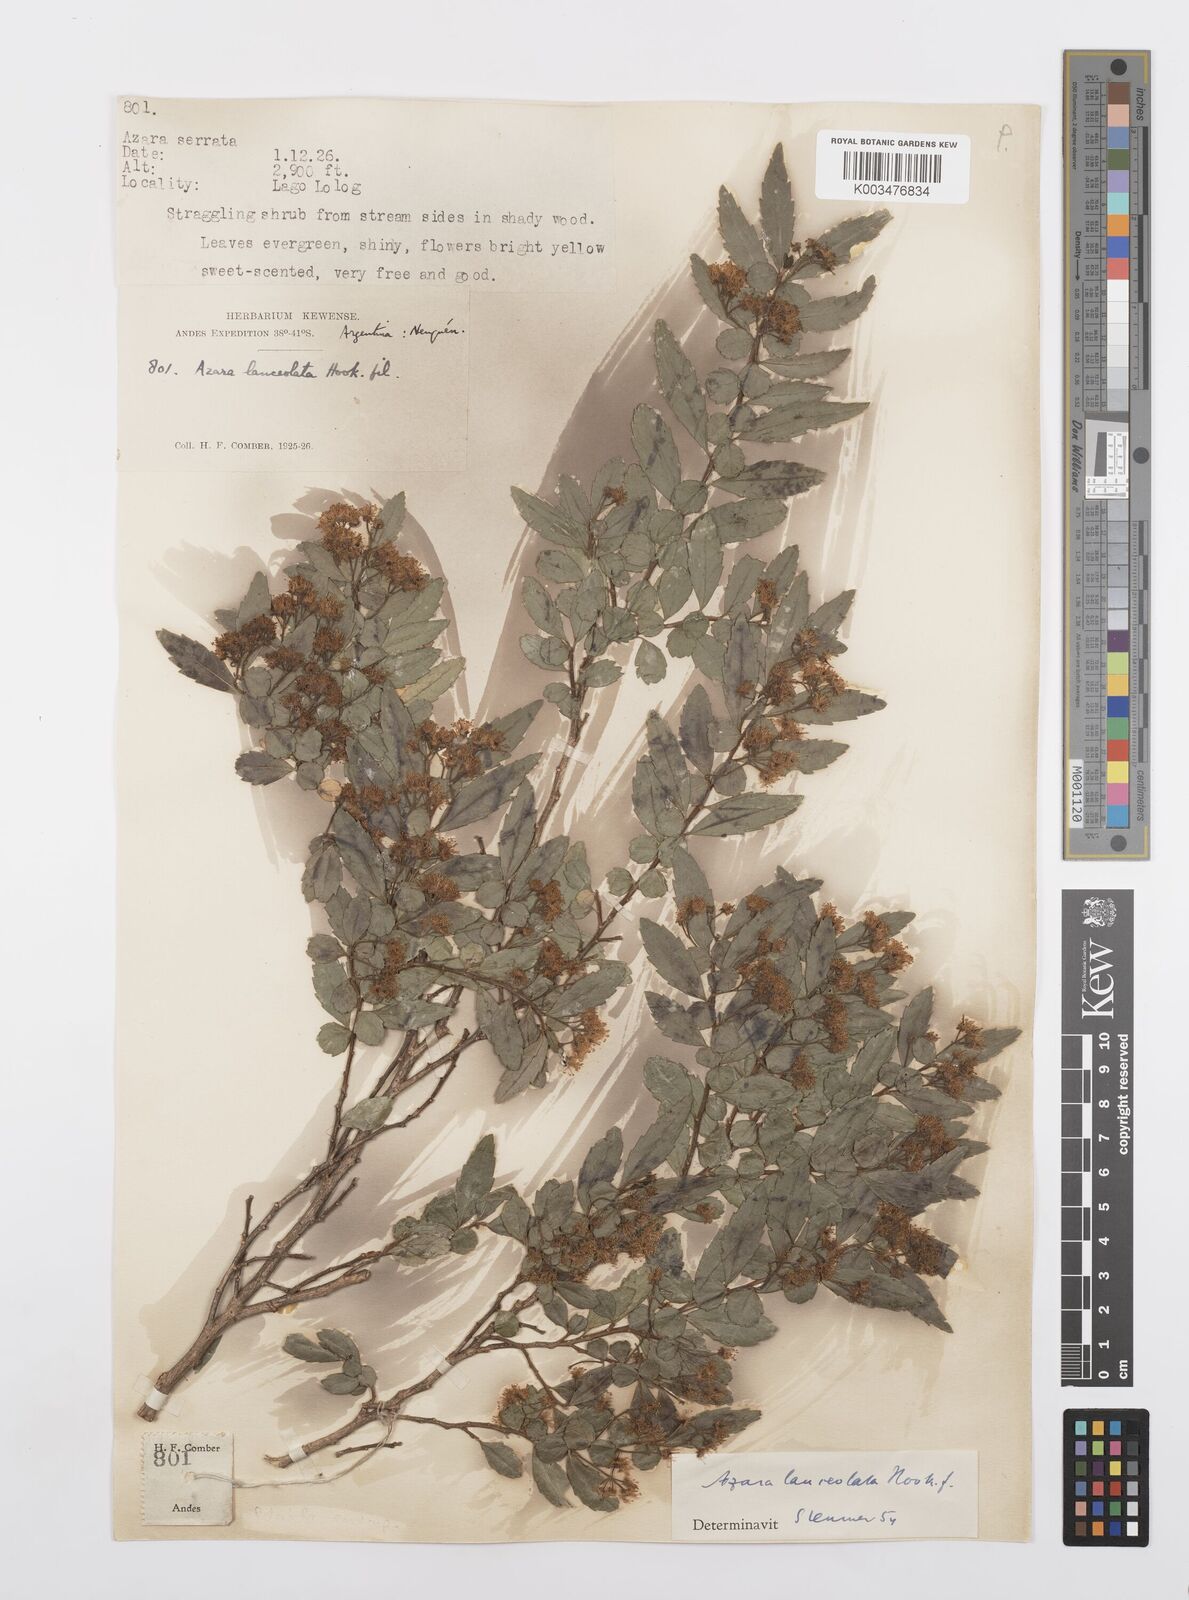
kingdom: Plantae
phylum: Tracheophyta
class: Magnoliopsida
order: Malpighiales
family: Salicaceae
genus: Azara
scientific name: Azara lanceolata
